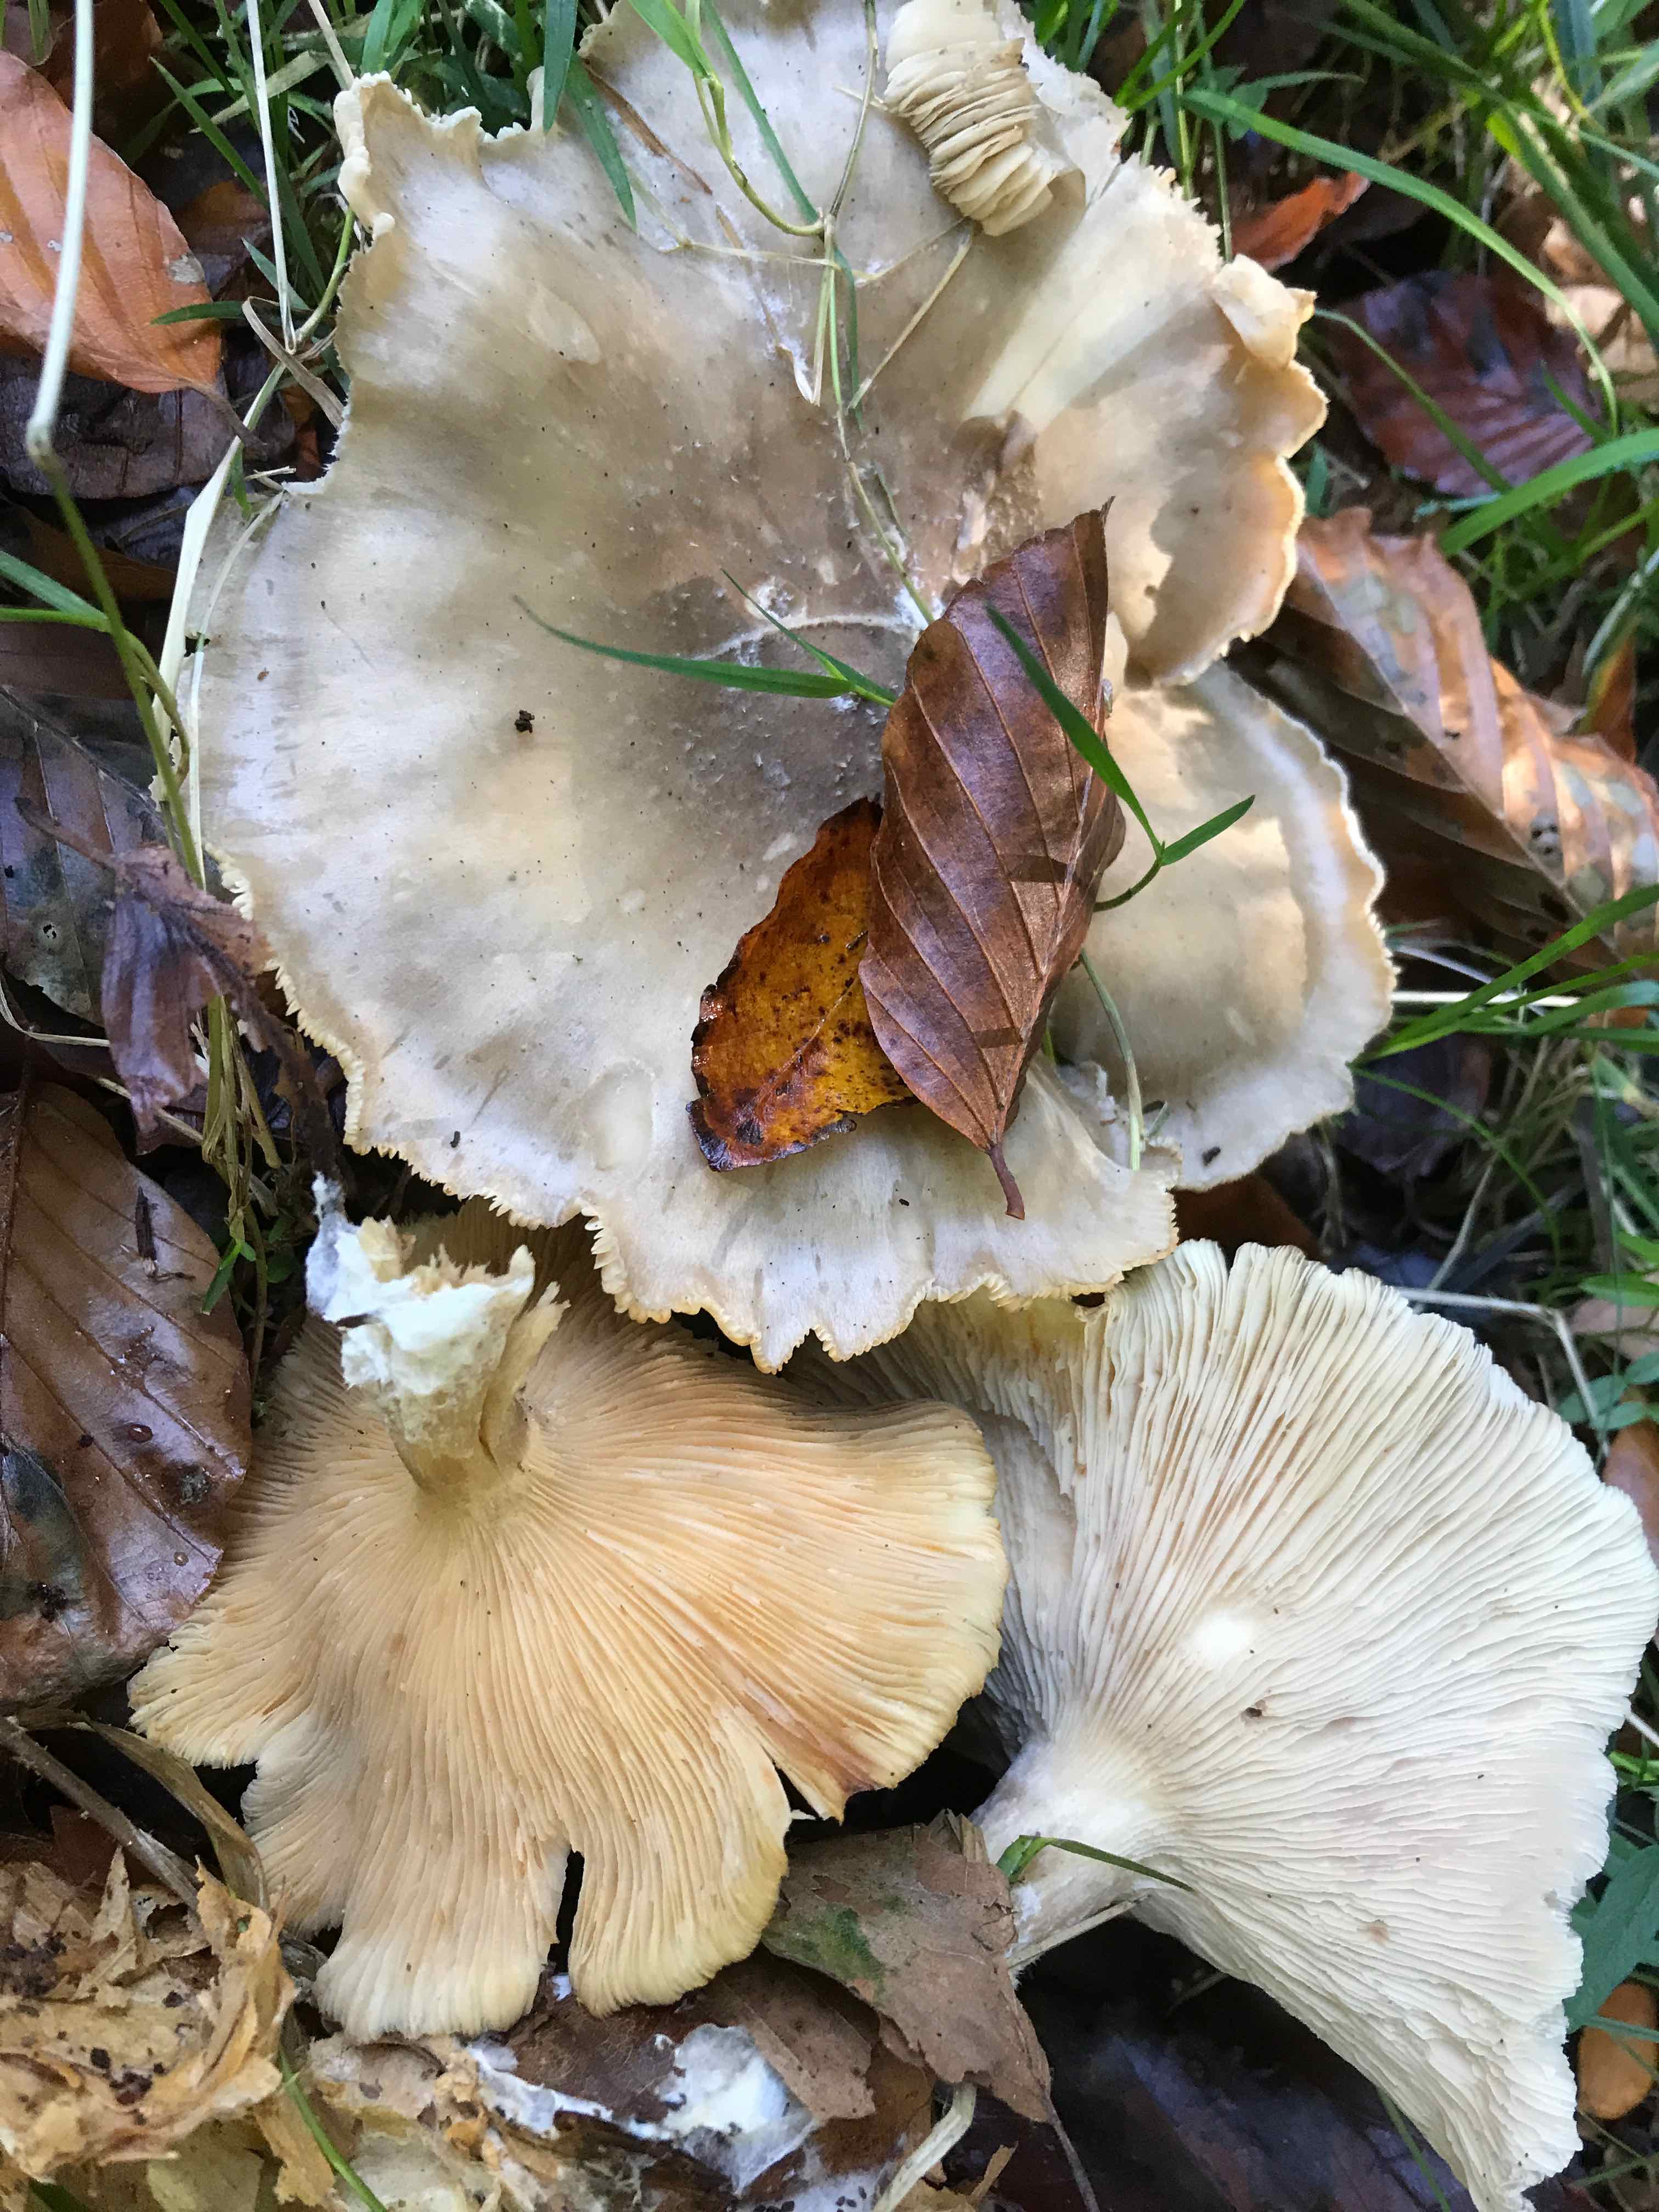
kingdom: Fungi
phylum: Basidiomycota
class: Agaricomycetes
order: Agaricales
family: Tricholomataceae
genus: Clitocybe
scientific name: Clitocybe nebularis
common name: tåge-tragthat
